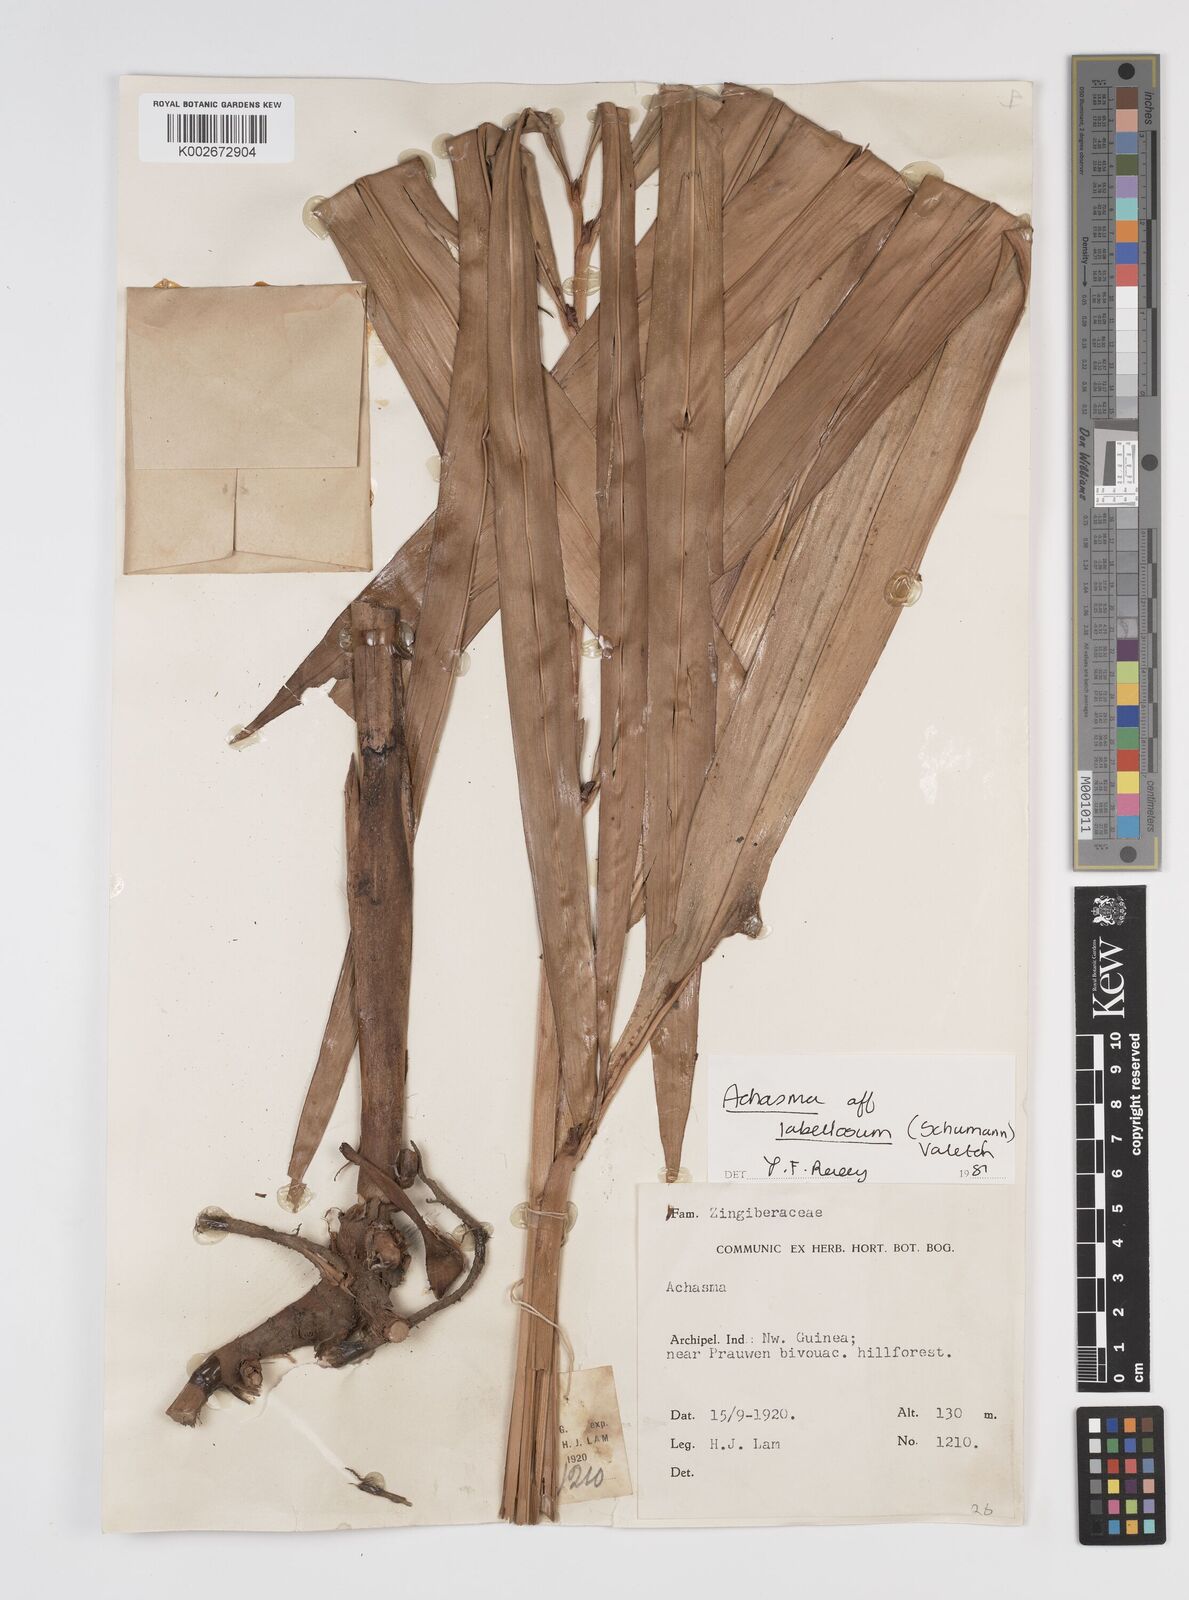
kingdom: Plantae
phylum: Tracheophyta
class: Liliopsida
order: Zingiberales
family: Zingiberaceae
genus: Etlingera
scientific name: Etlingera labellosa
